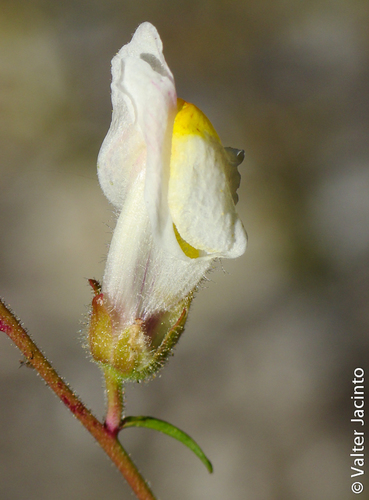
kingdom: Plantae
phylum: Tracheophyta
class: Magnoliopsida
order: Lamiales
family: Plantaginaceae
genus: Antirrhinum
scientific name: Antirrhinum onubense
